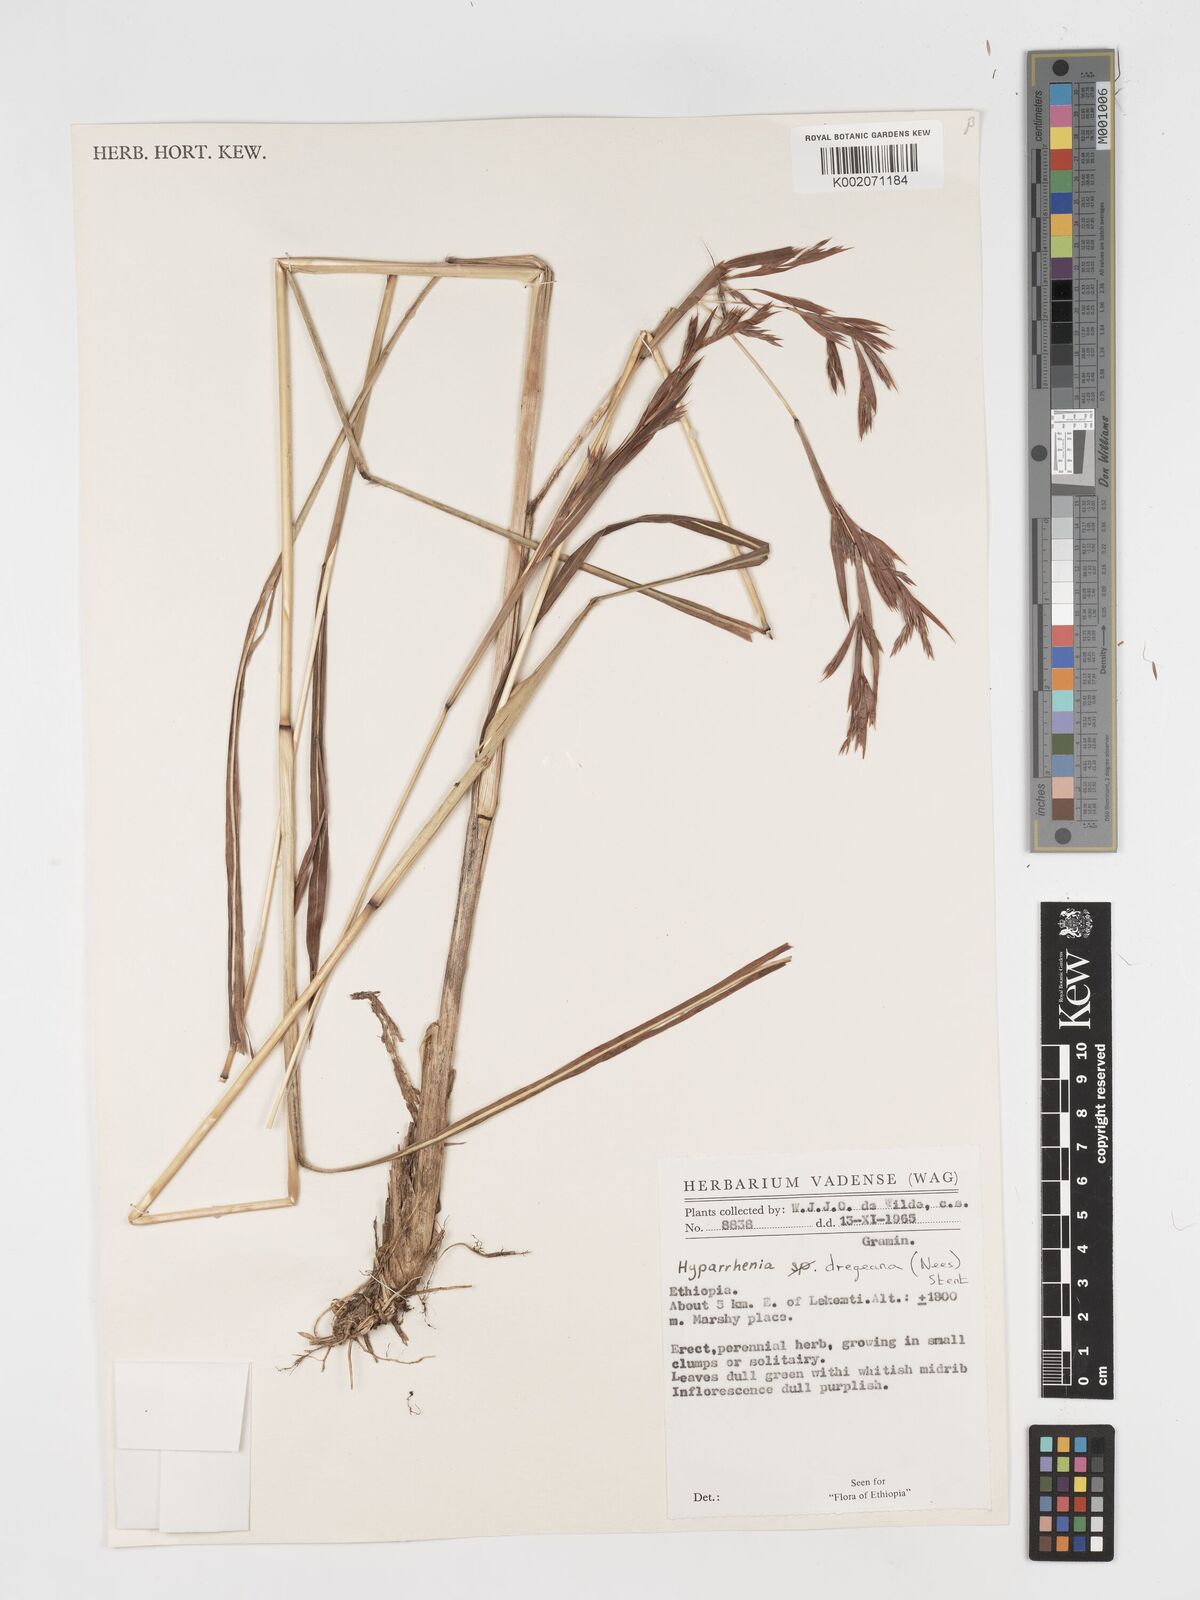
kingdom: Plantae
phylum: Tracheophyta
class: Liliopsida
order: Poales
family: Poaceae
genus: Hyparrhenia
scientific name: Hyparrhenia dregeana
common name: Silky thatching grass
